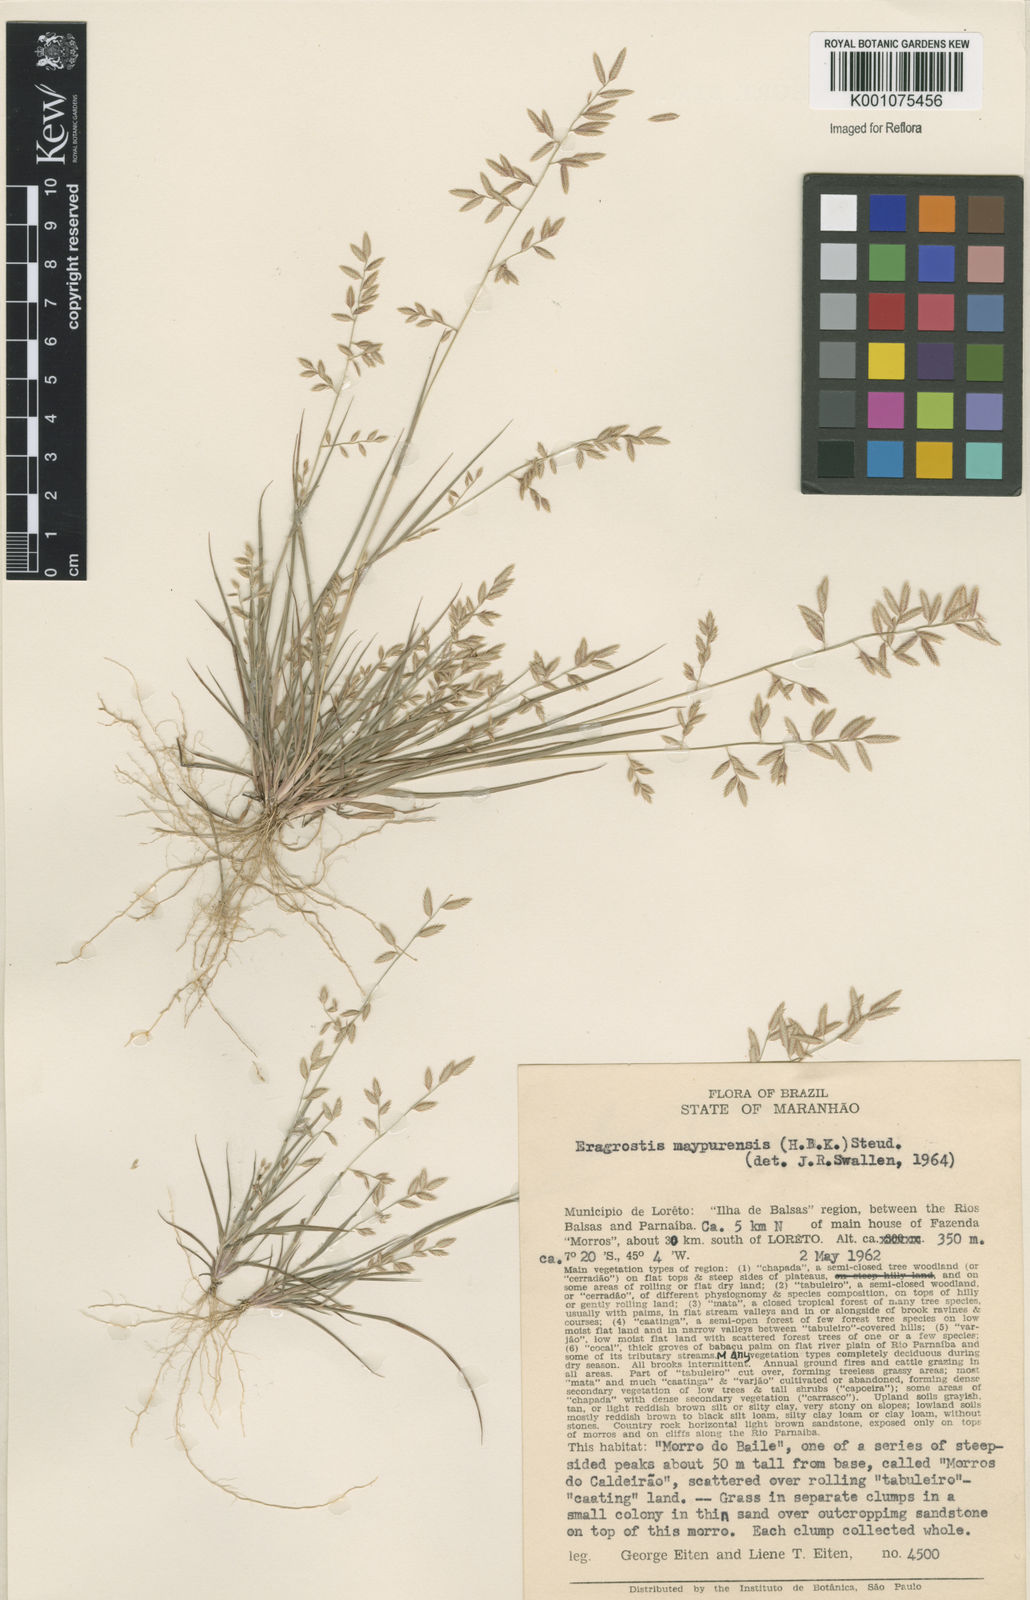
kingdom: Plantae
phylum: Tracheophyta
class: Liliopsida
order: Poales
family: Poaceae
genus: Eragrostis
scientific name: Eragrostis maypurensis
